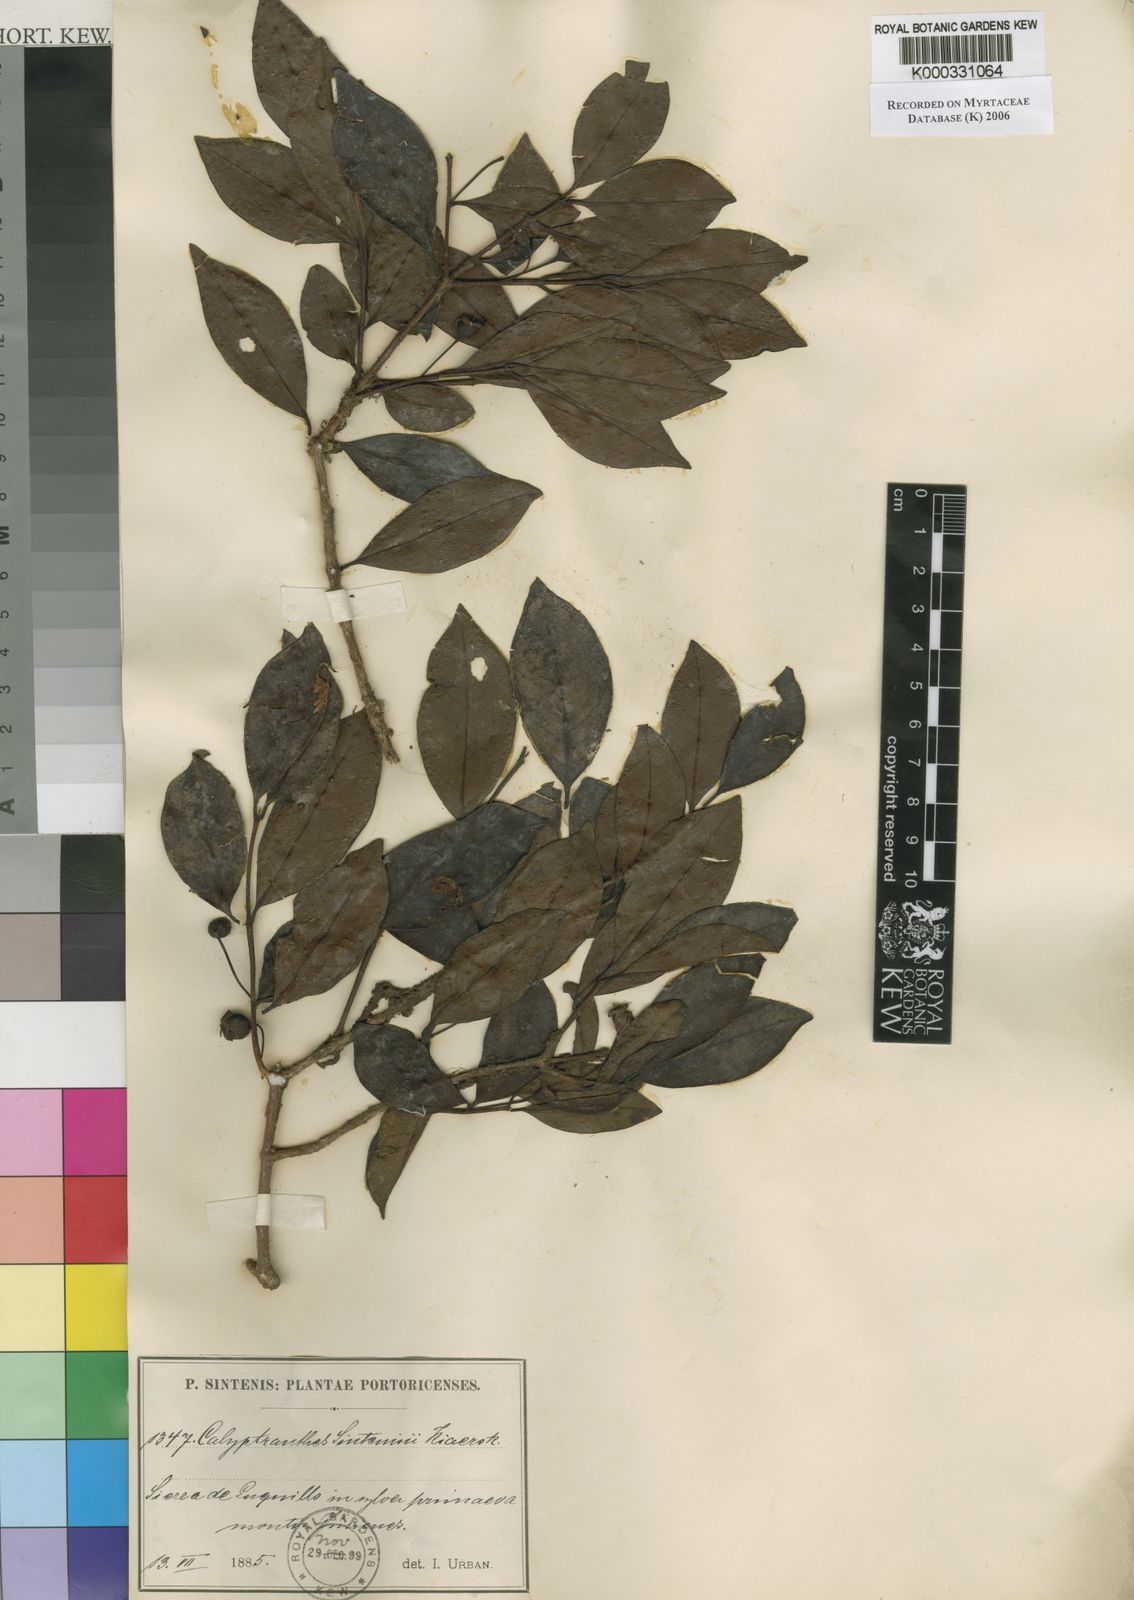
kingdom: Plantae
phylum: Tracheophyta
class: Magnoliopsida
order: Myrtales
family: Myrtaceae
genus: Psidium
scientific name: Psidium sintenisii
